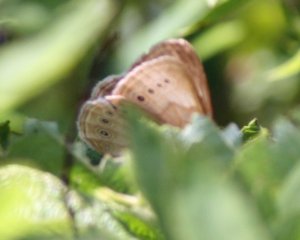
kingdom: Animalia
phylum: Arthropoda
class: Insecta
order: Lepidoptera
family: Nymphalidae
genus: Lethe
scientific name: Lethe eurydice
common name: Eyed Brown
